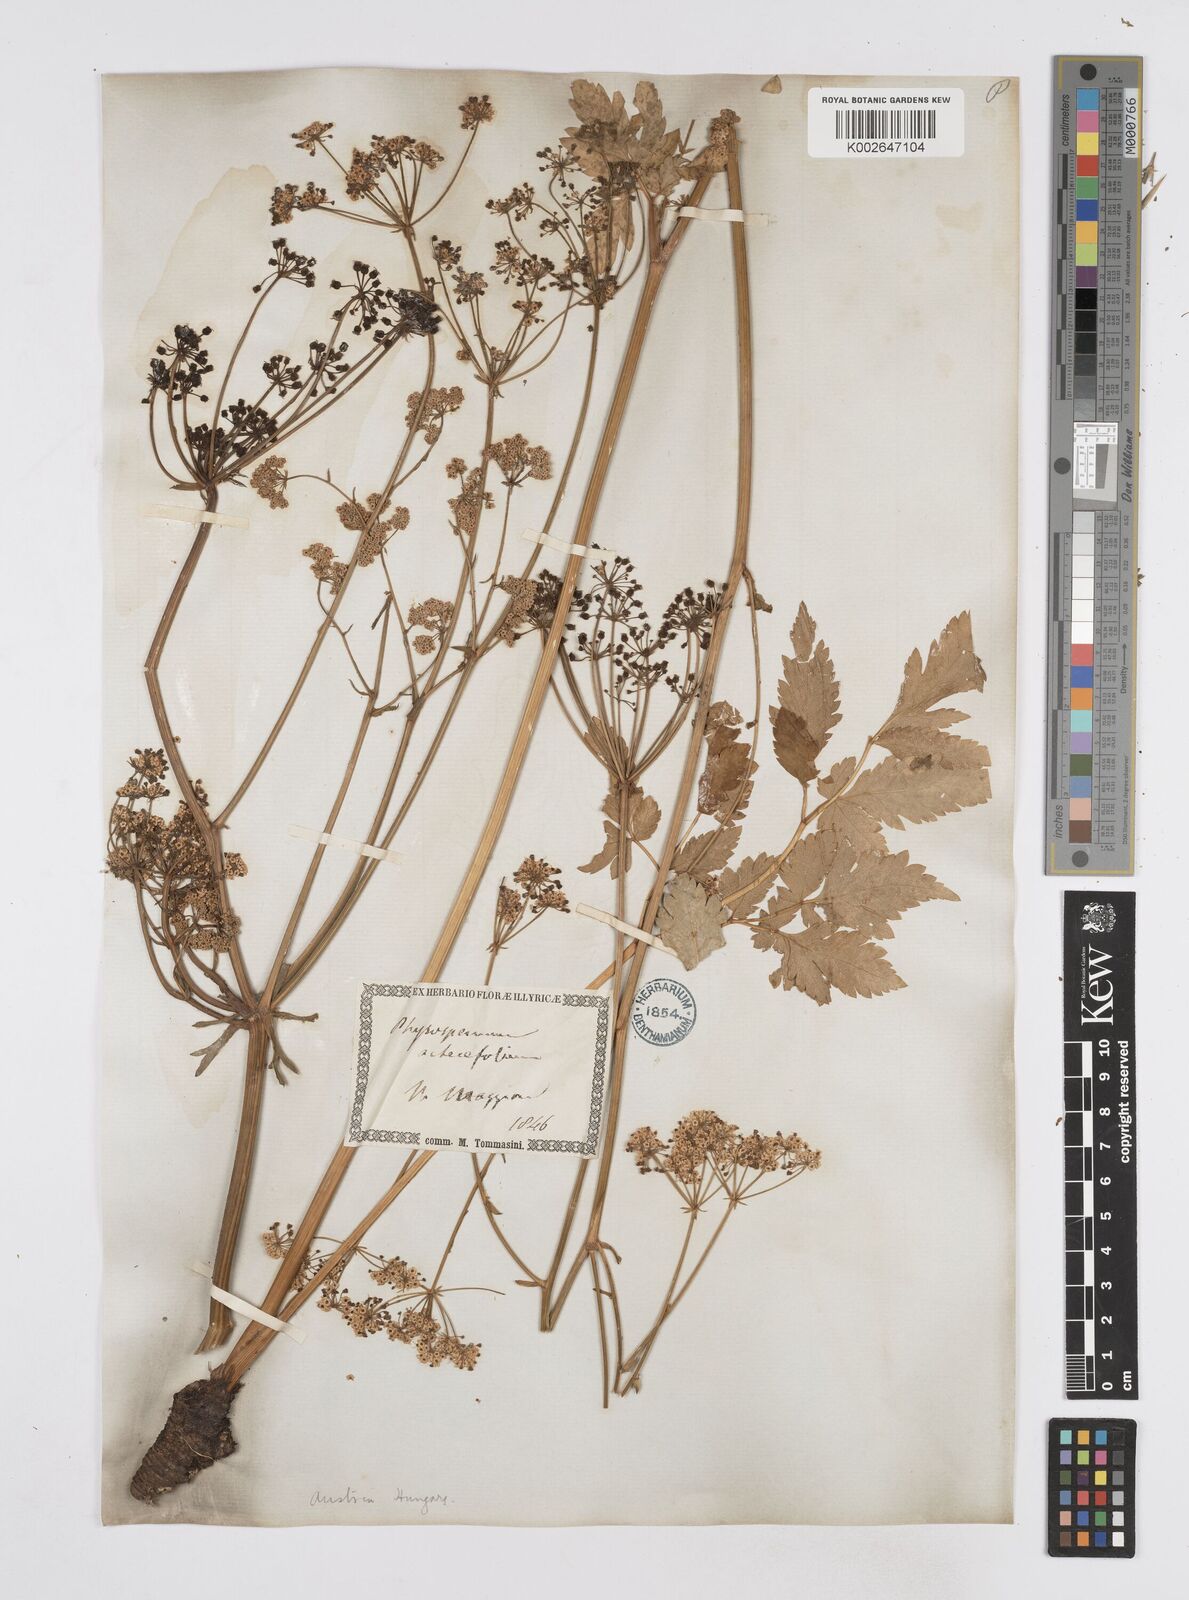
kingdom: Plantae
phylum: Tracheophyta
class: Magnoliopsida
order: Apiales
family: Apiaceae
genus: Physospermum
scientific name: Physospermum verticillatum
